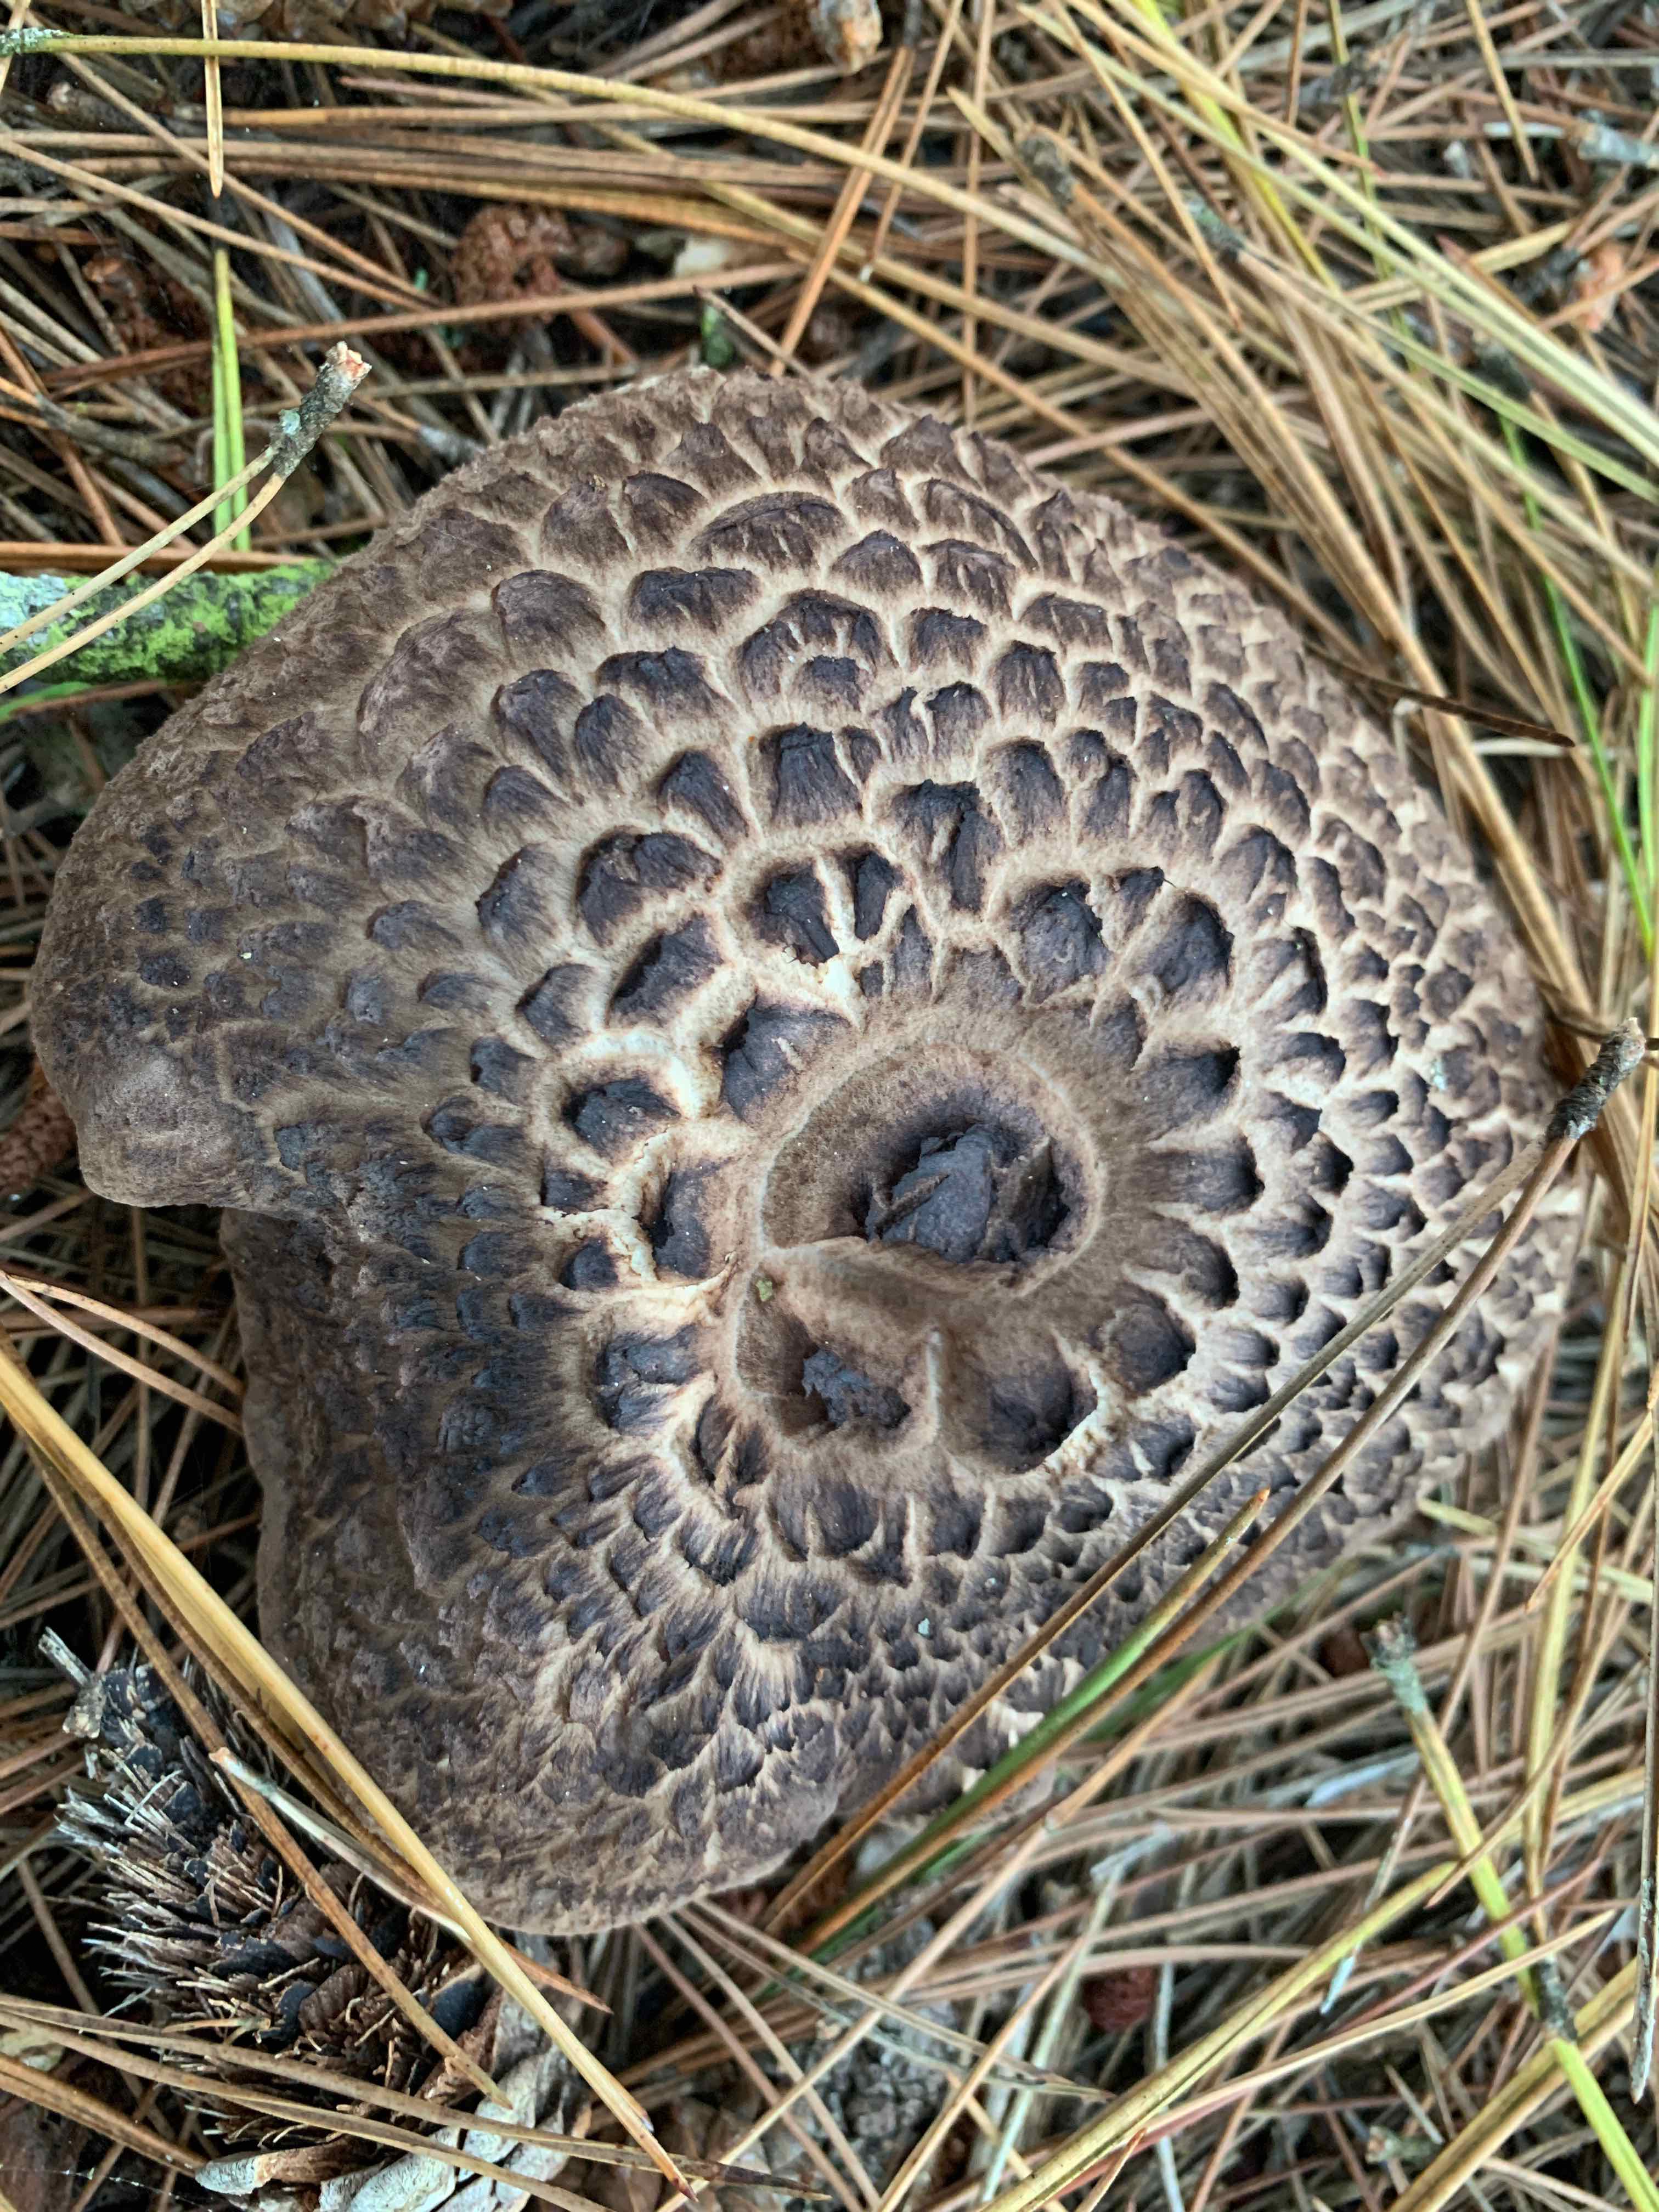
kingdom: Fungi
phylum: Basidiomycota
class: Agaricomycetes
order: Thelephorales
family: Bankeraceae
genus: Sarcodon
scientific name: Sarcodon squamosus
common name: småskællet kødpigsvamp
